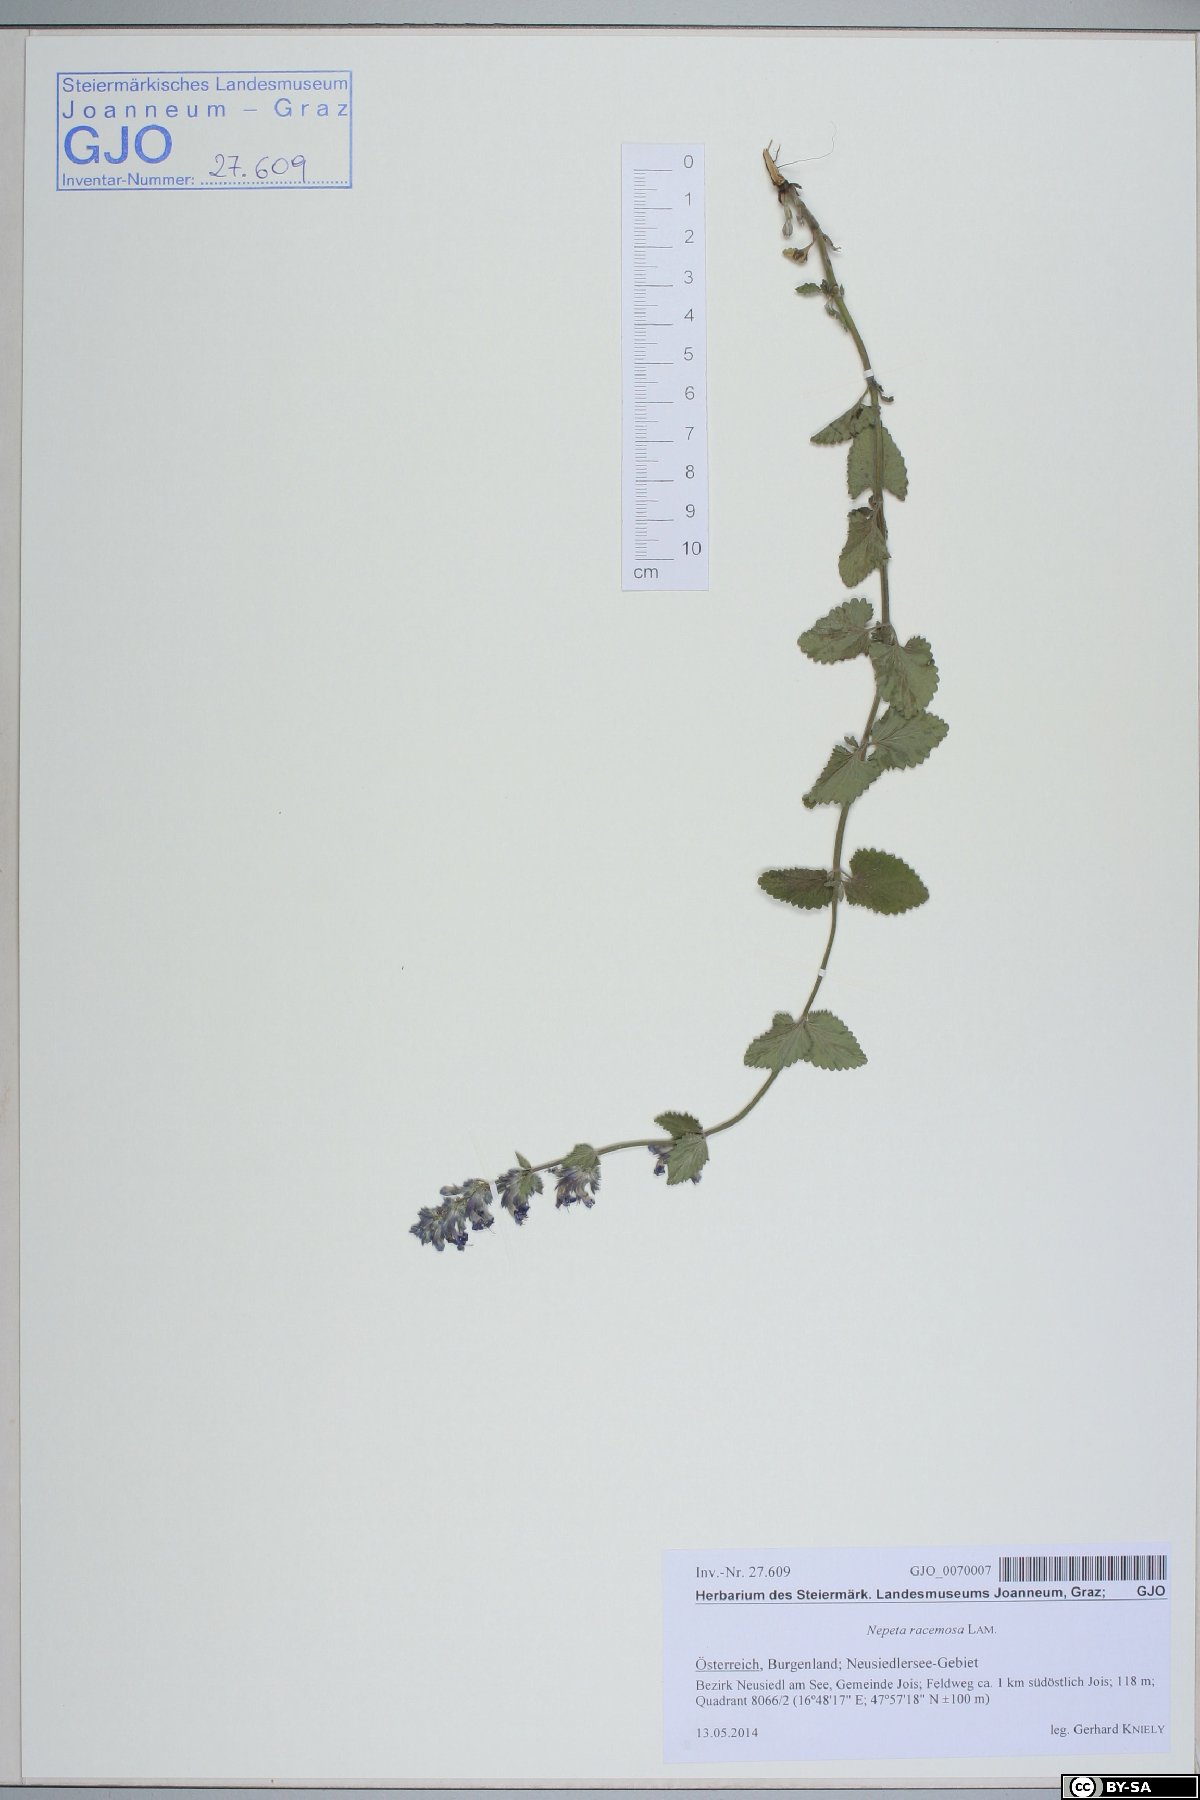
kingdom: Plantae
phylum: Tracheophyta
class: Magnoliopsida
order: Lamiales
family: Lamiaceae
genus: Nepeta
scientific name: Nepeta racemosa
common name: Raceme catnip
